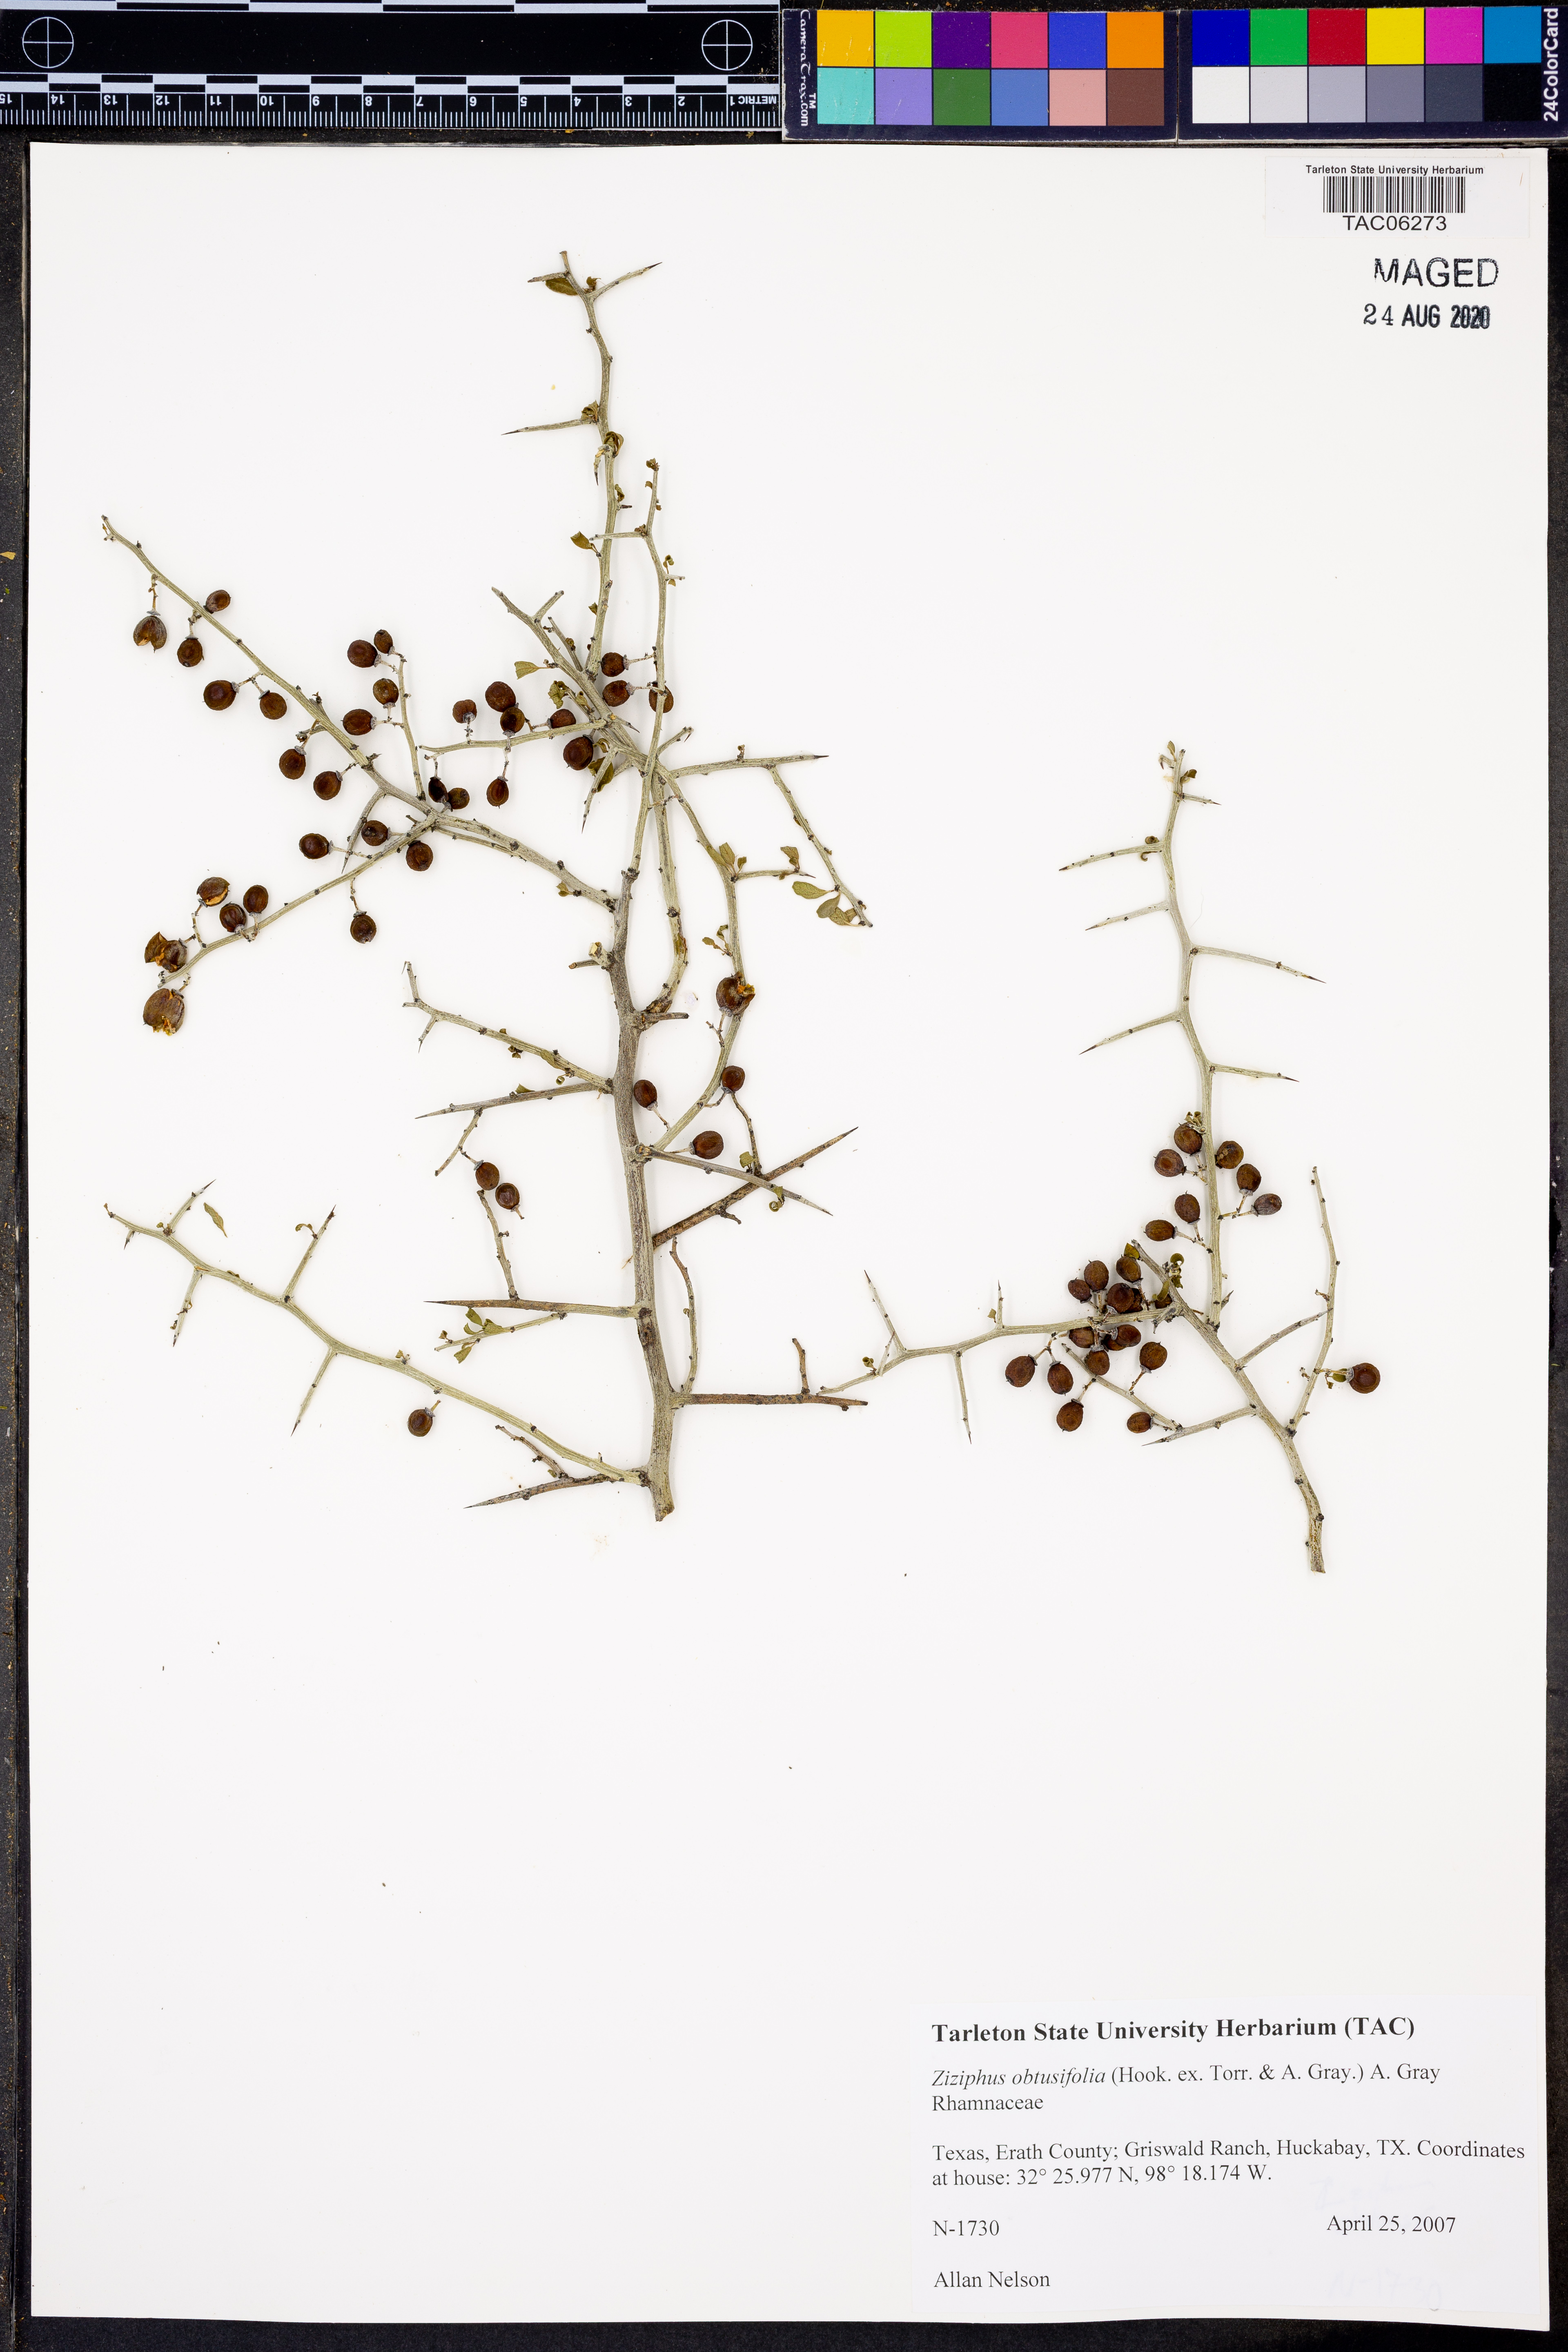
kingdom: Plantae
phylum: Tracheophyta
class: Magnoliopsida
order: Rosales
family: Rhamnaceae
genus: Sarcomphalus
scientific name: Sarcomphalus obtusifolius
